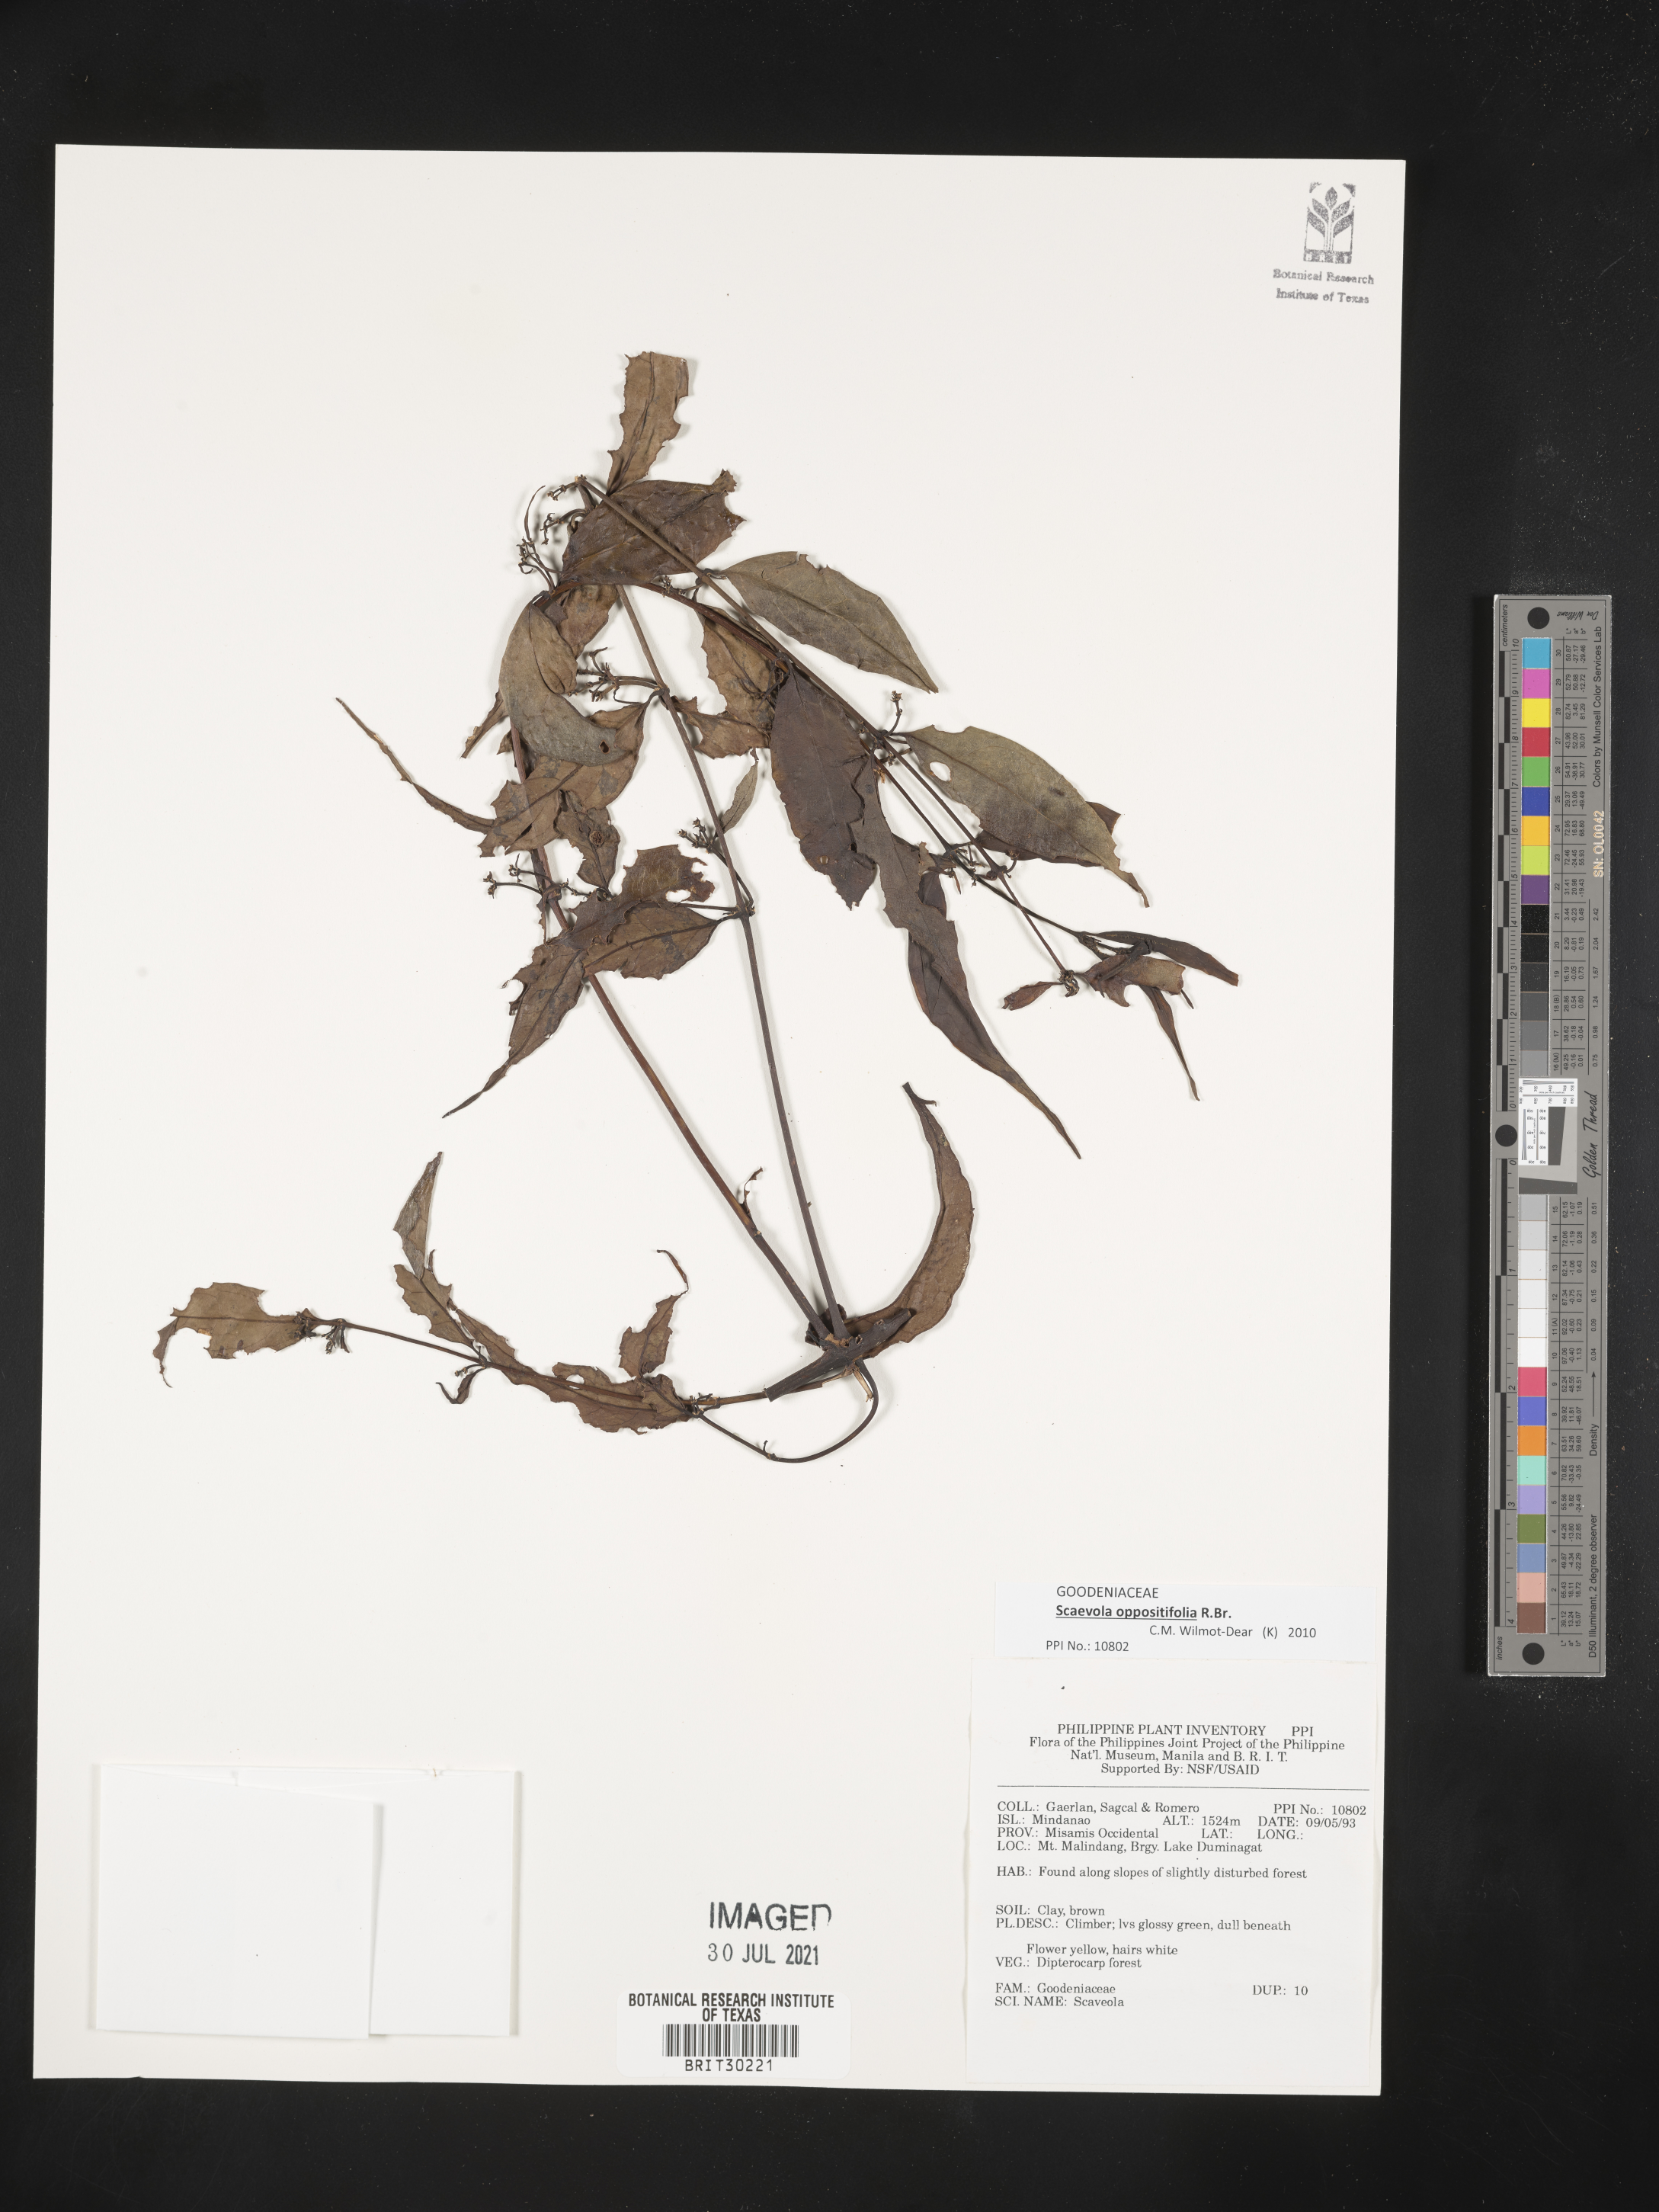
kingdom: Plantae
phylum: Tracheophyta
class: Magnoliopsida
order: Asterales
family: Goodeniaceae
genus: Scaevola
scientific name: Scaevola
